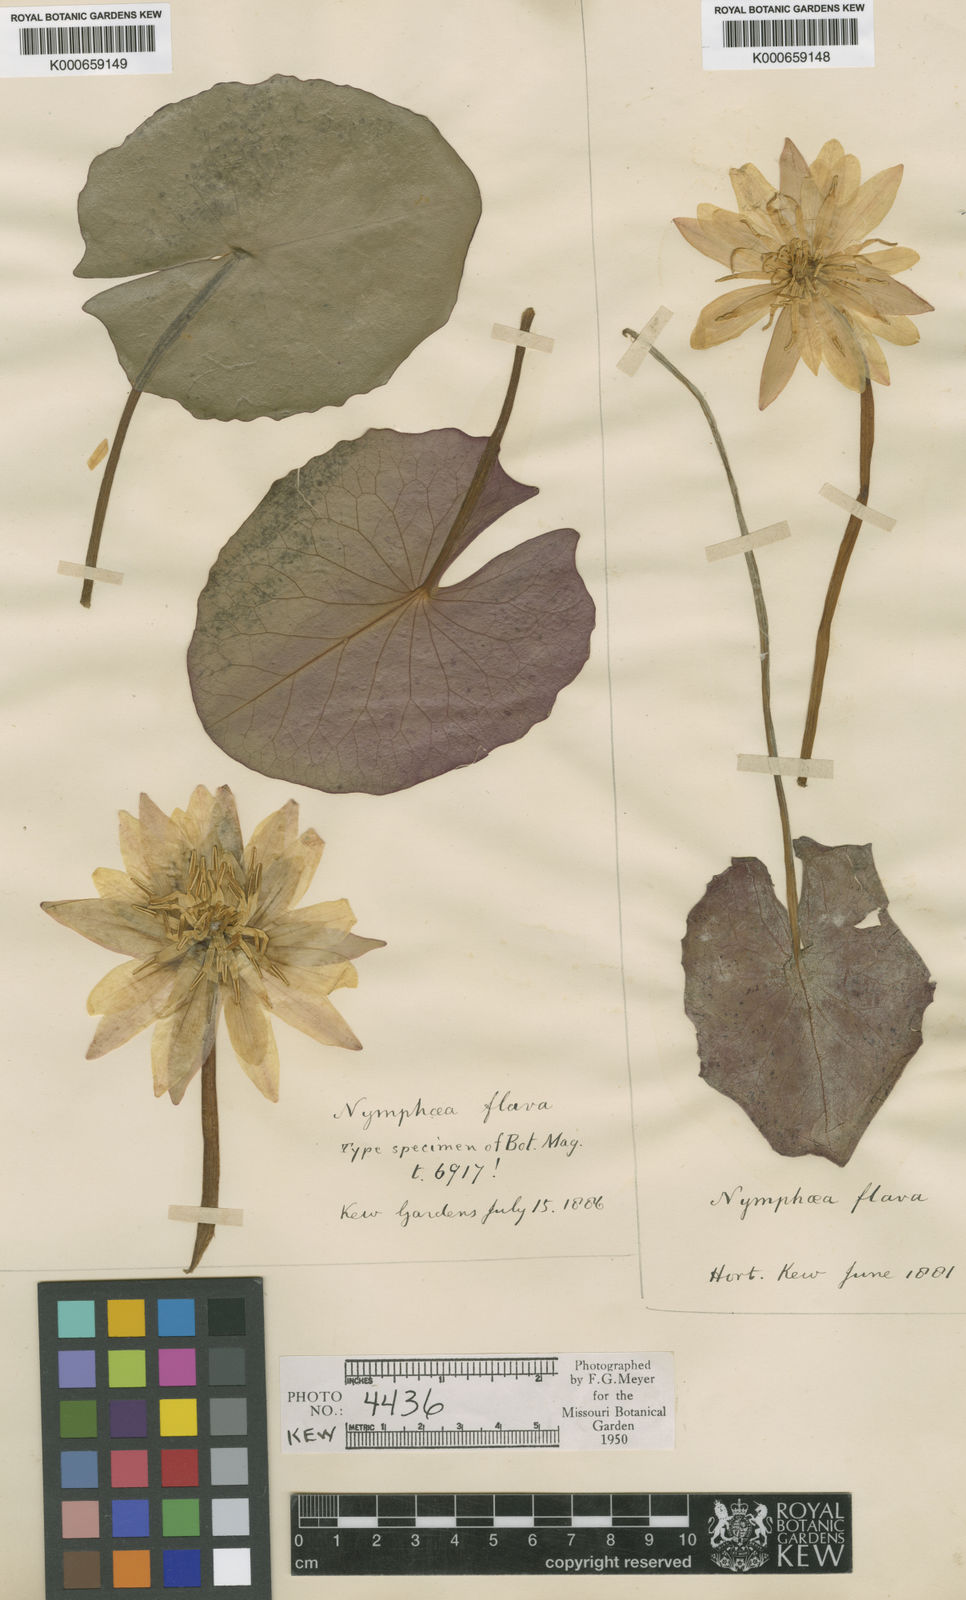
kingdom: Plantae
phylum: Tracheophyta
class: Magnoliopsida
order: Nymphaeales
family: Nymphaeaceae
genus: Nymphaea
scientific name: Nymphaea mexicana
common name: Banana water-lily
